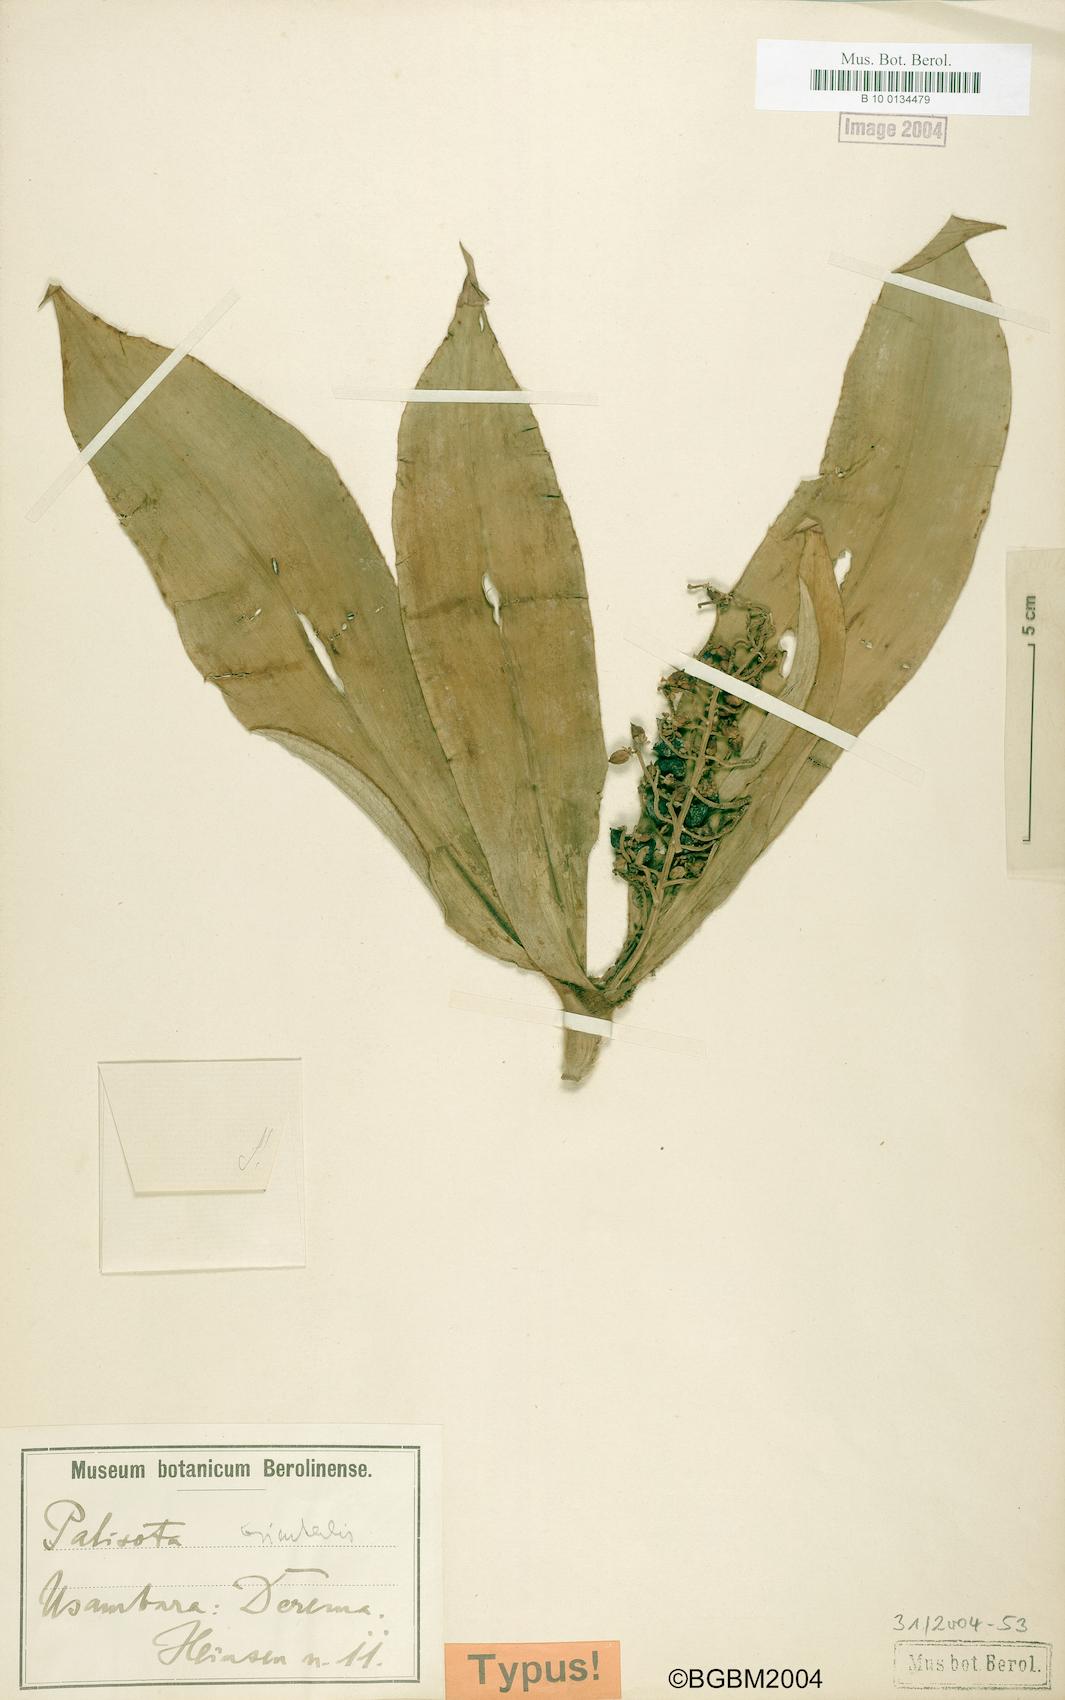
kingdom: Plantae
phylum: Tracheophyta
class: Liliopsida
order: Commelinales
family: Commelinaceae
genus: Palisota
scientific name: Palisota orientalis
